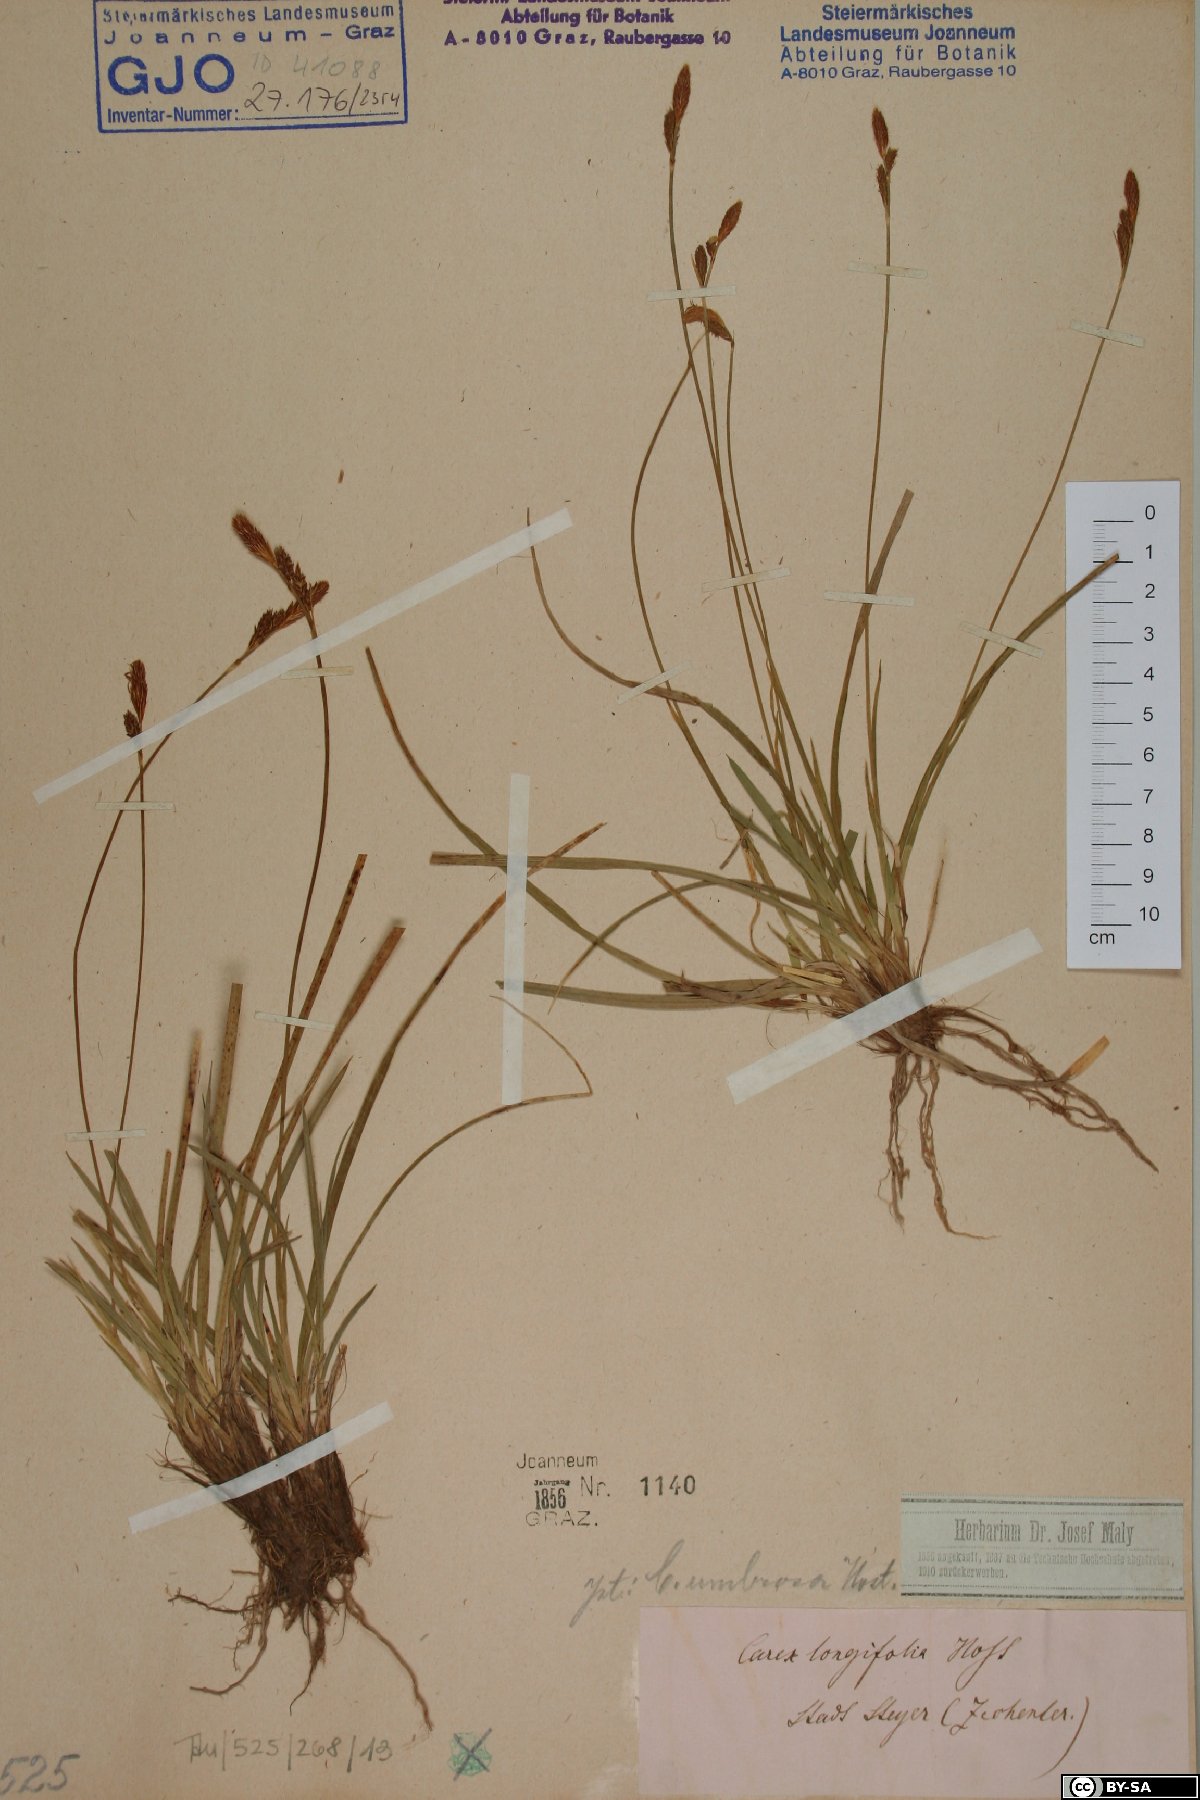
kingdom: Plantae
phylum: Tracheophyta
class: Liliopsida
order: Poales
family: Cyperaceae
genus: Carex
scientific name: Carex umbrosa
